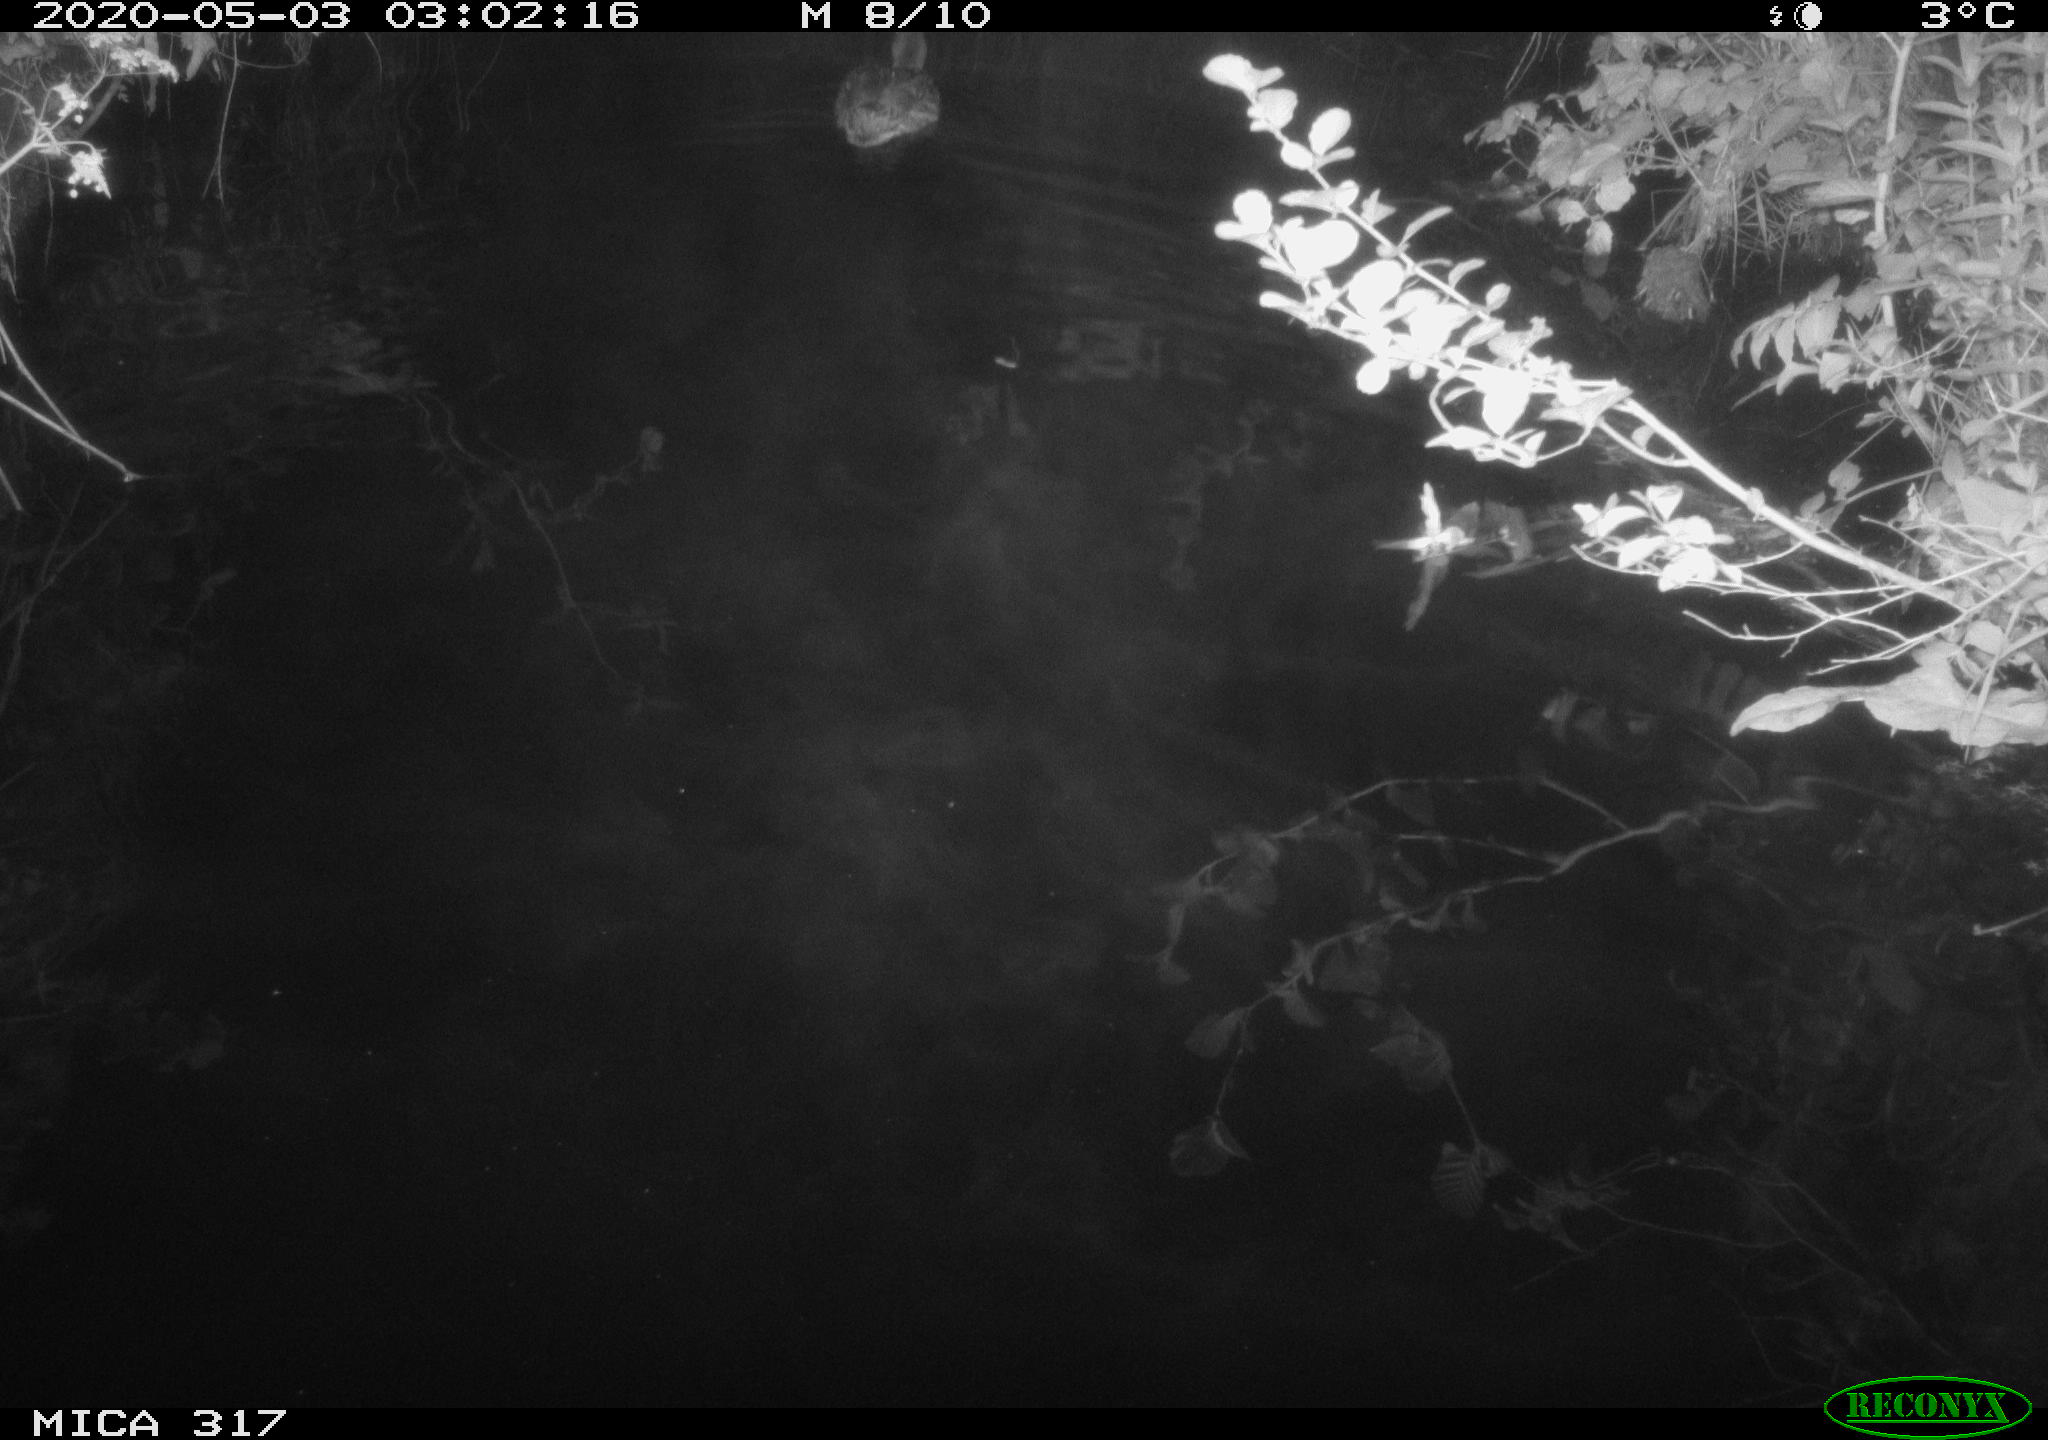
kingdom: Animalia
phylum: Chordata
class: Aves
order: Anseriformes
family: Anatidae
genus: Anas
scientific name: Anas platyrhynchos
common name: Mallard
